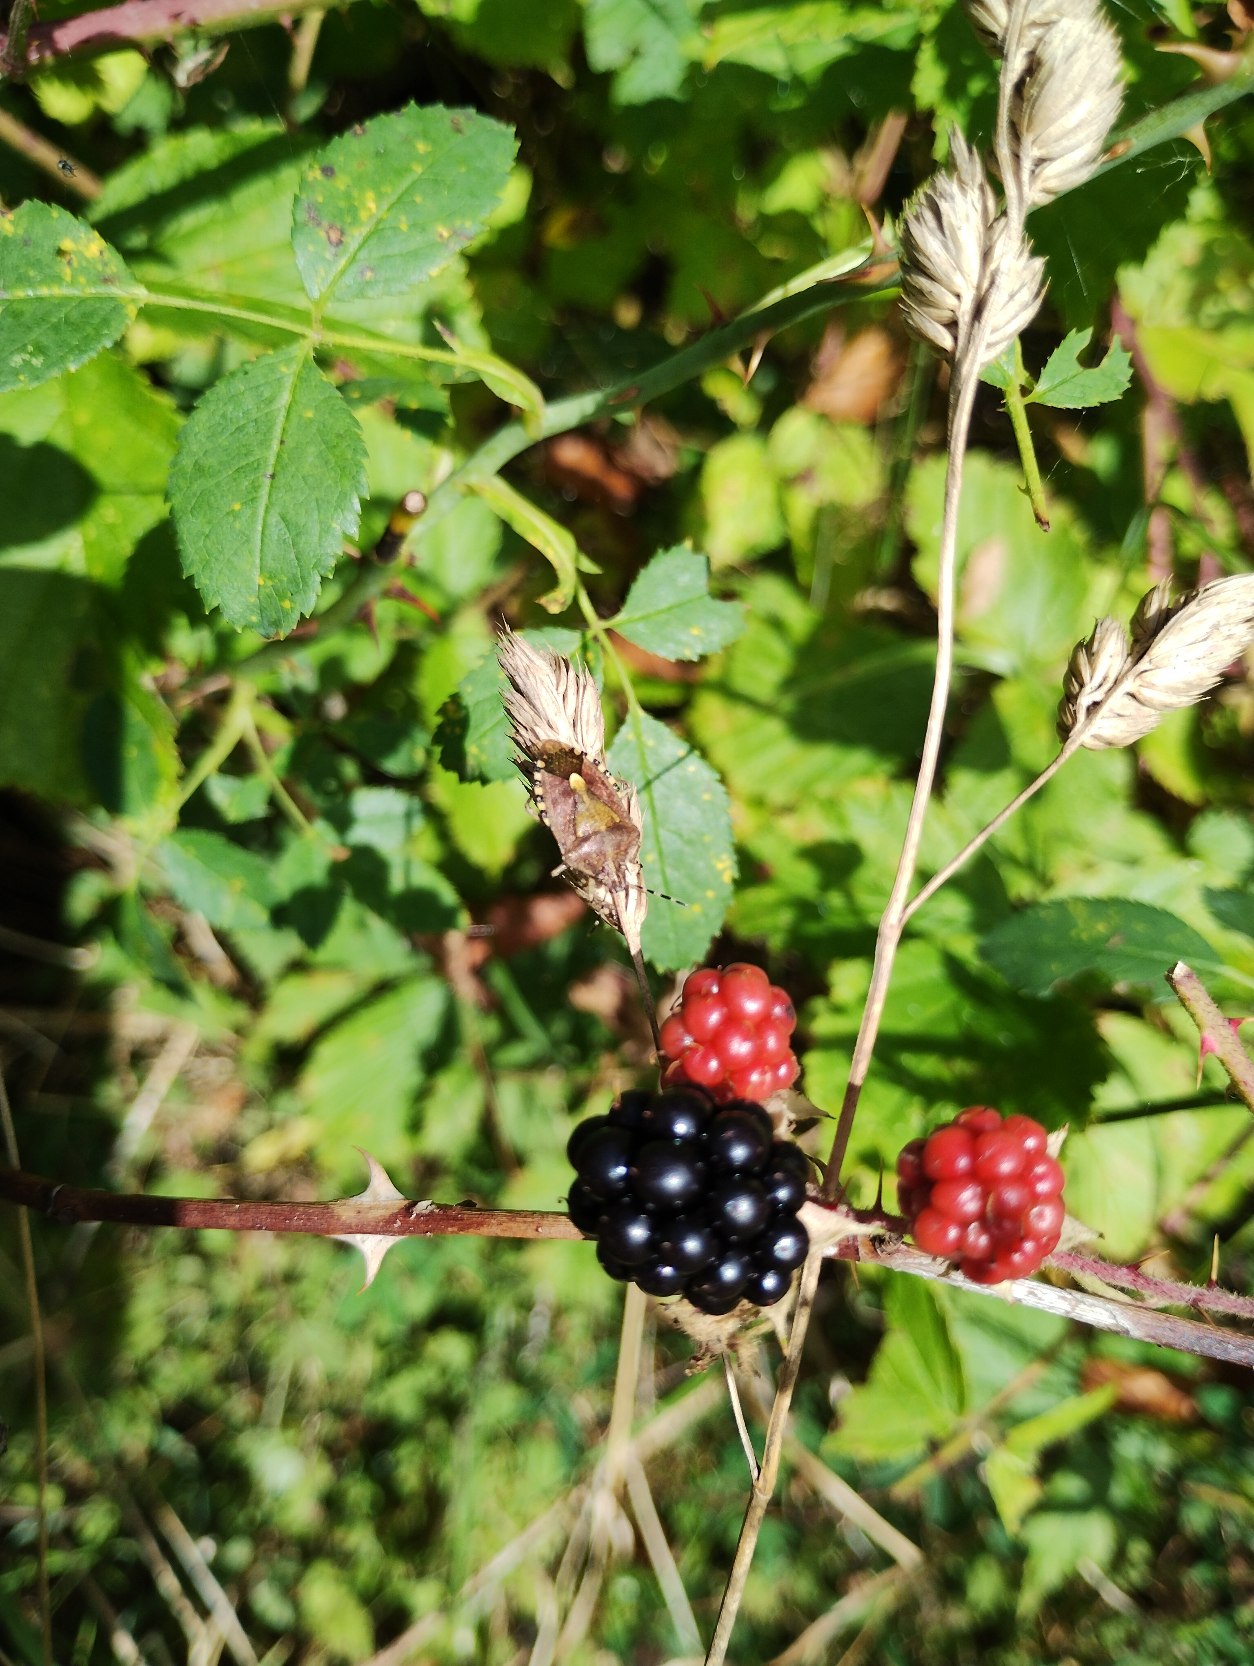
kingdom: Animalia
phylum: Arthropoda
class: Insecta
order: Hemiptera
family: Pentatomidae
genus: Dolycoris
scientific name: Dolycoris baccarum
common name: Almindelig bærtæge
